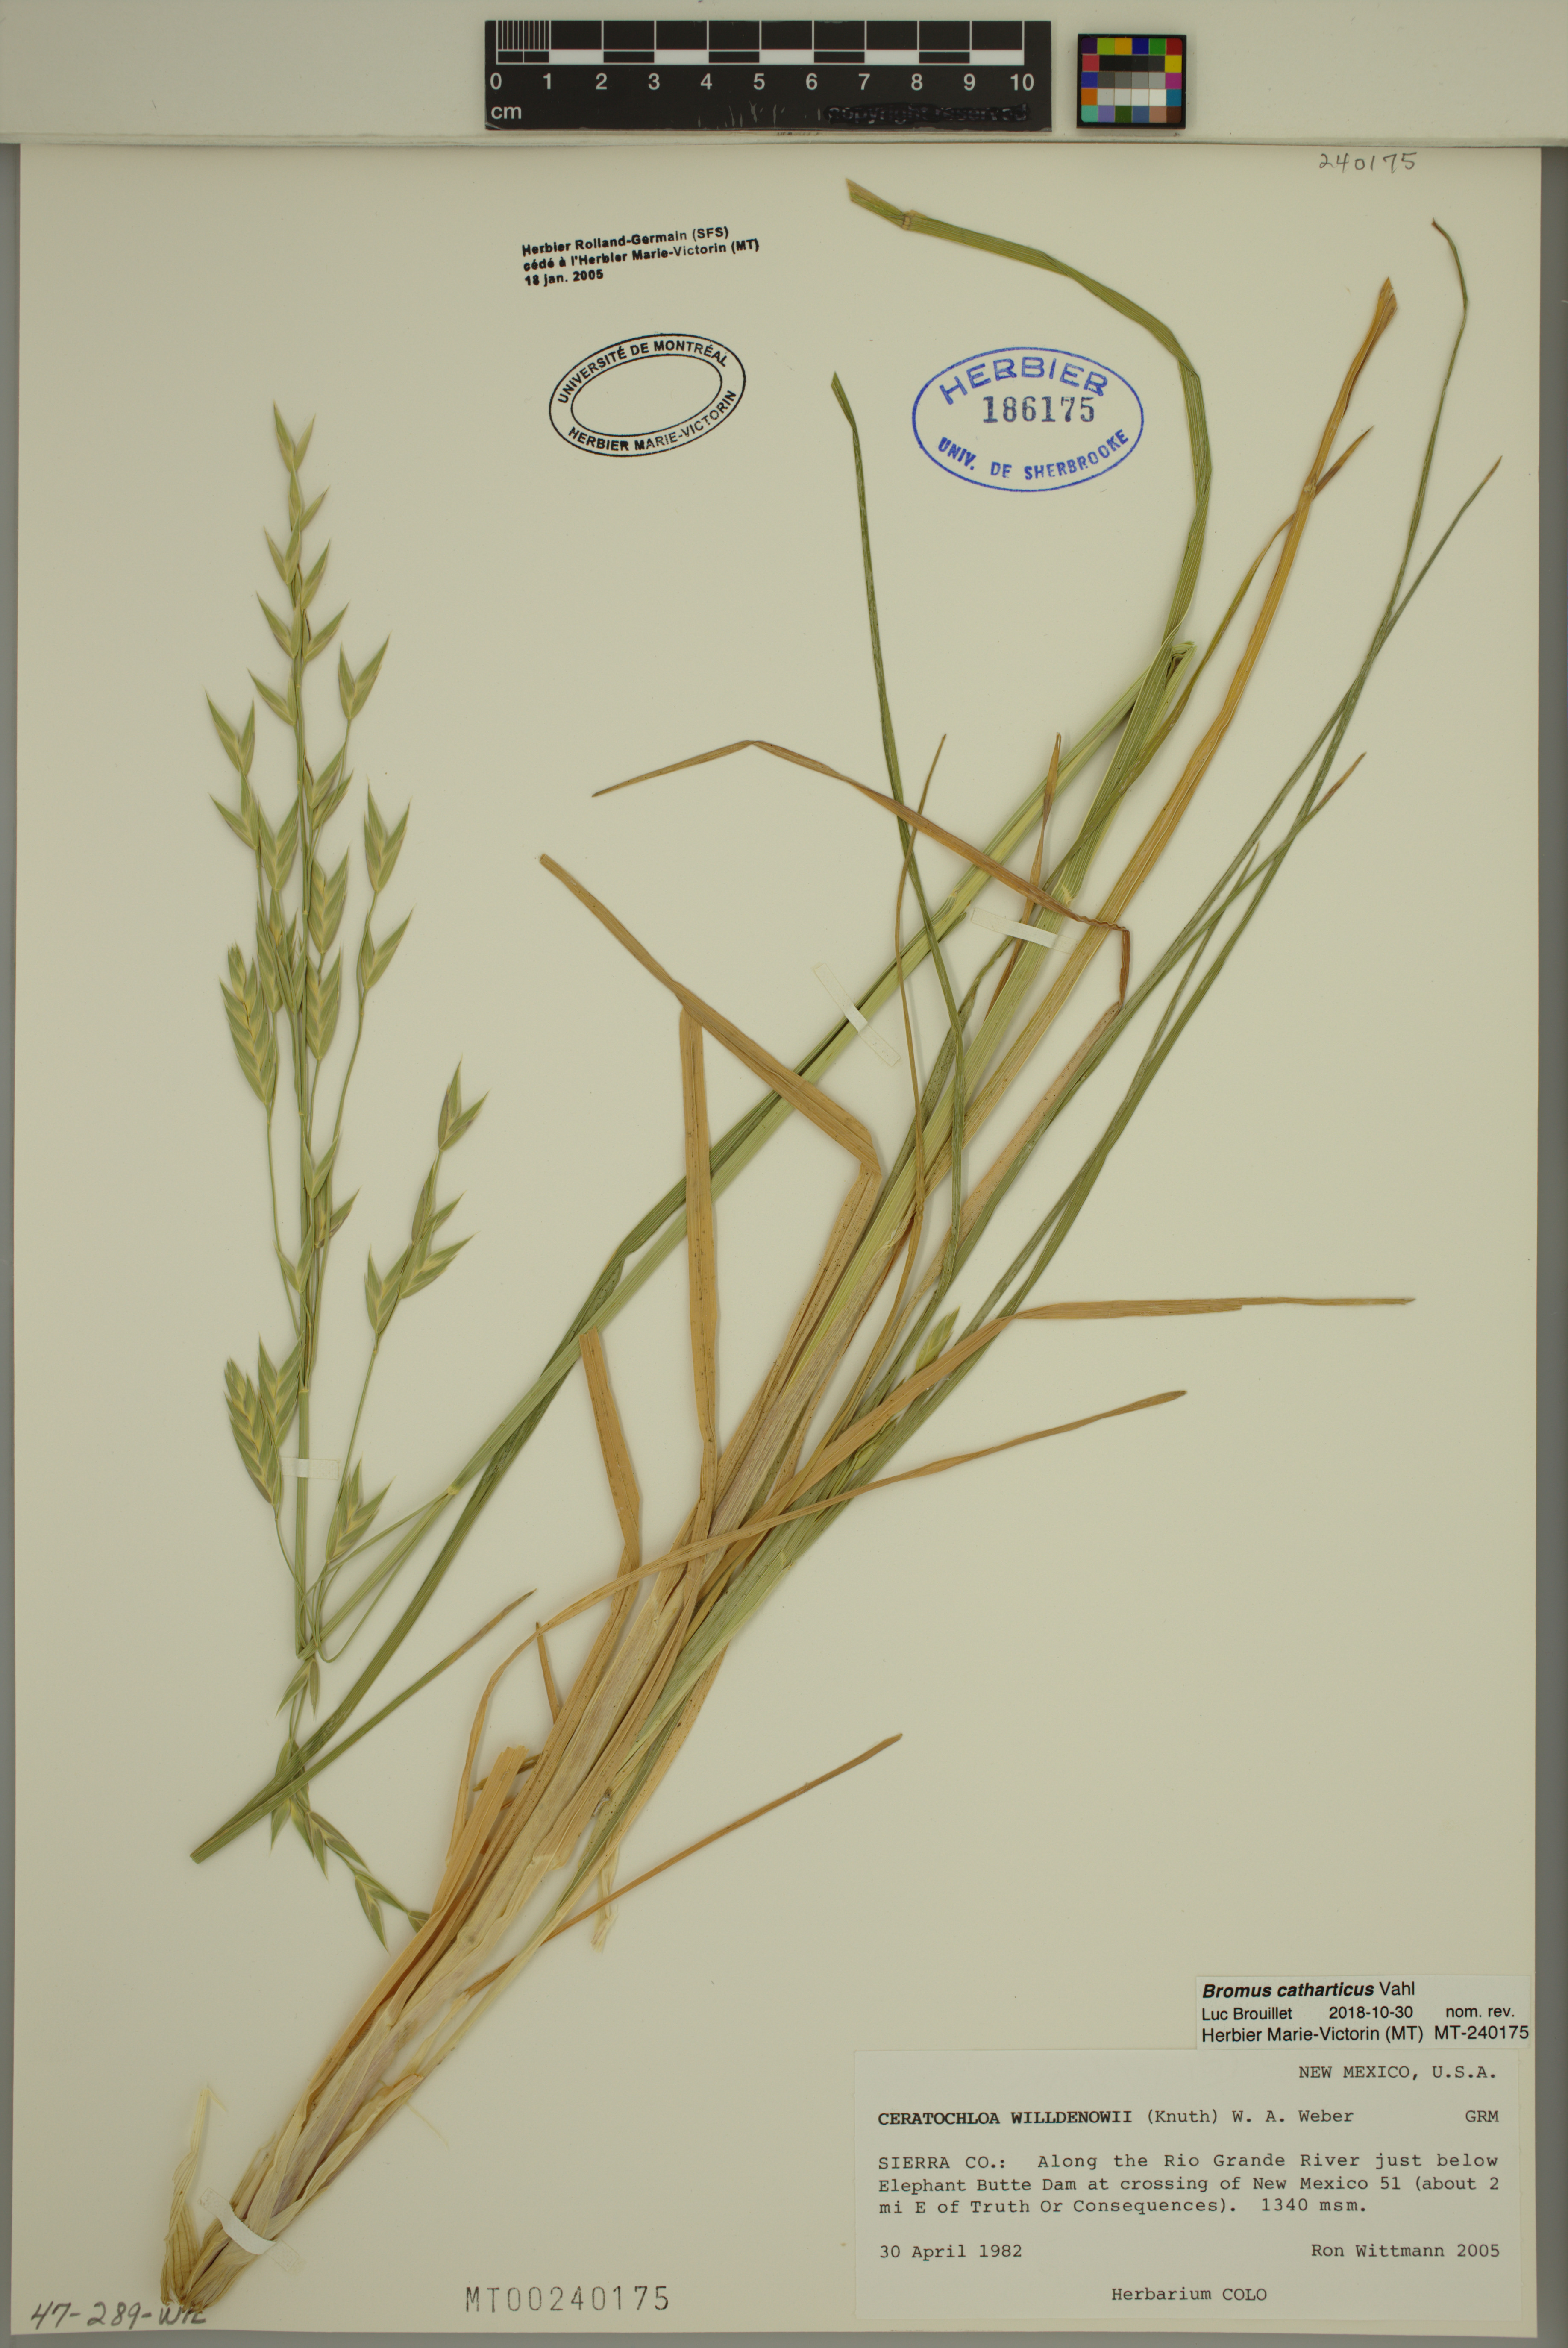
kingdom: Plantae
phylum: Tracheophyta
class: Liliopsida
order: Poales
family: Poaceae
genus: Bromus
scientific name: Bromus catharticus
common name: Rescuegrass
